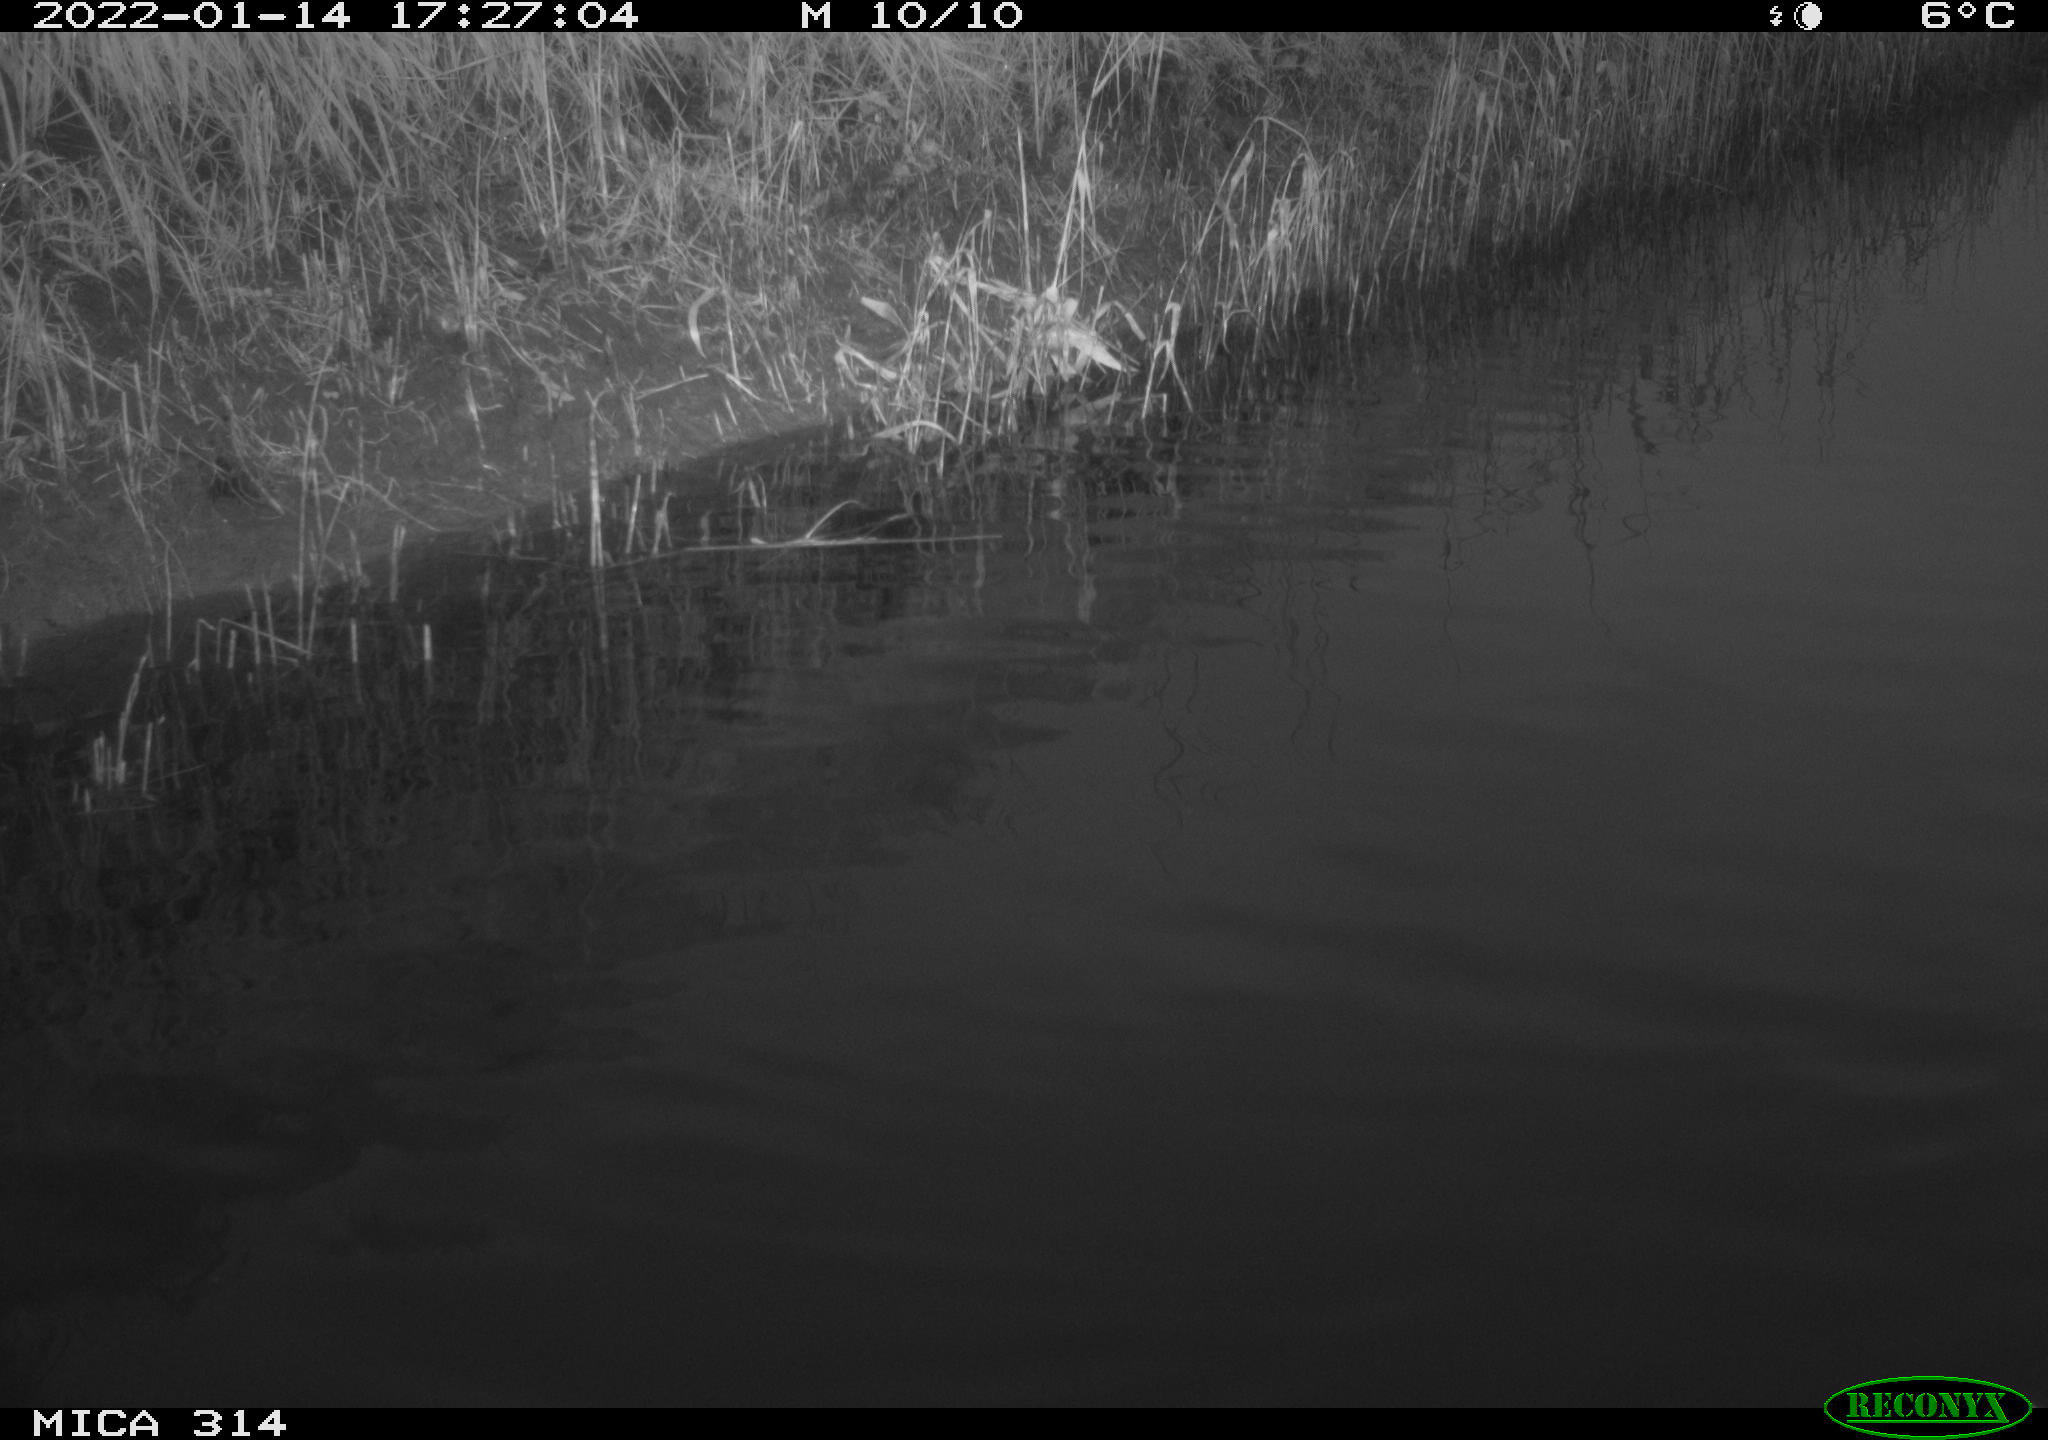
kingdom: Animalia
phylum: Chordata
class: Aves
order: Gruiformes
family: Rallidae
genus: Gallinula
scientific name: Gallinula chloropus
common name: Common moorhen
